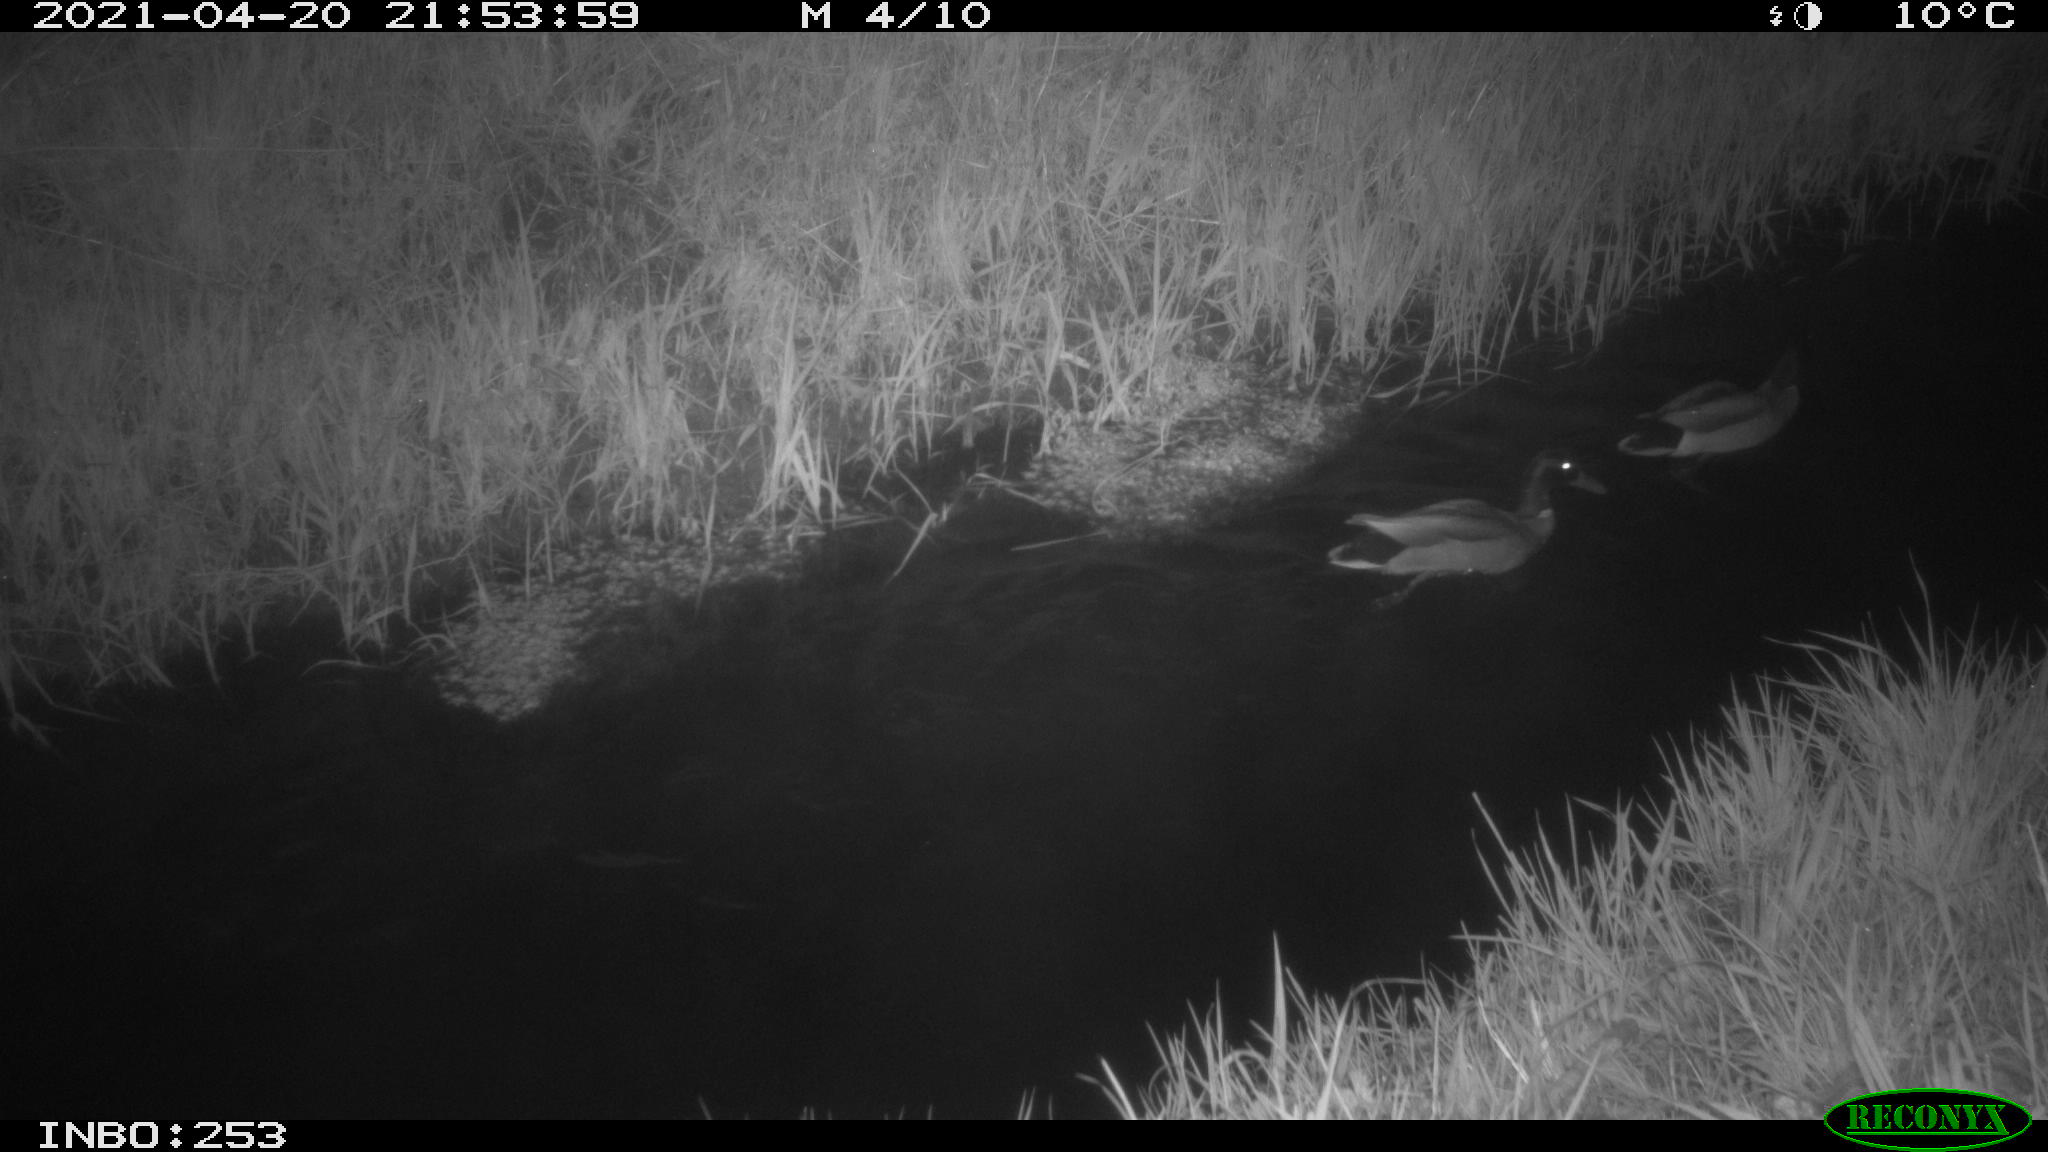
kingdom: Animalia
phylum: Chordata
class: Aves
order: Anseriformes
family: Anatidae
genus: Anas
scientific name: Anas platyrhynchos
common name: Mallard
